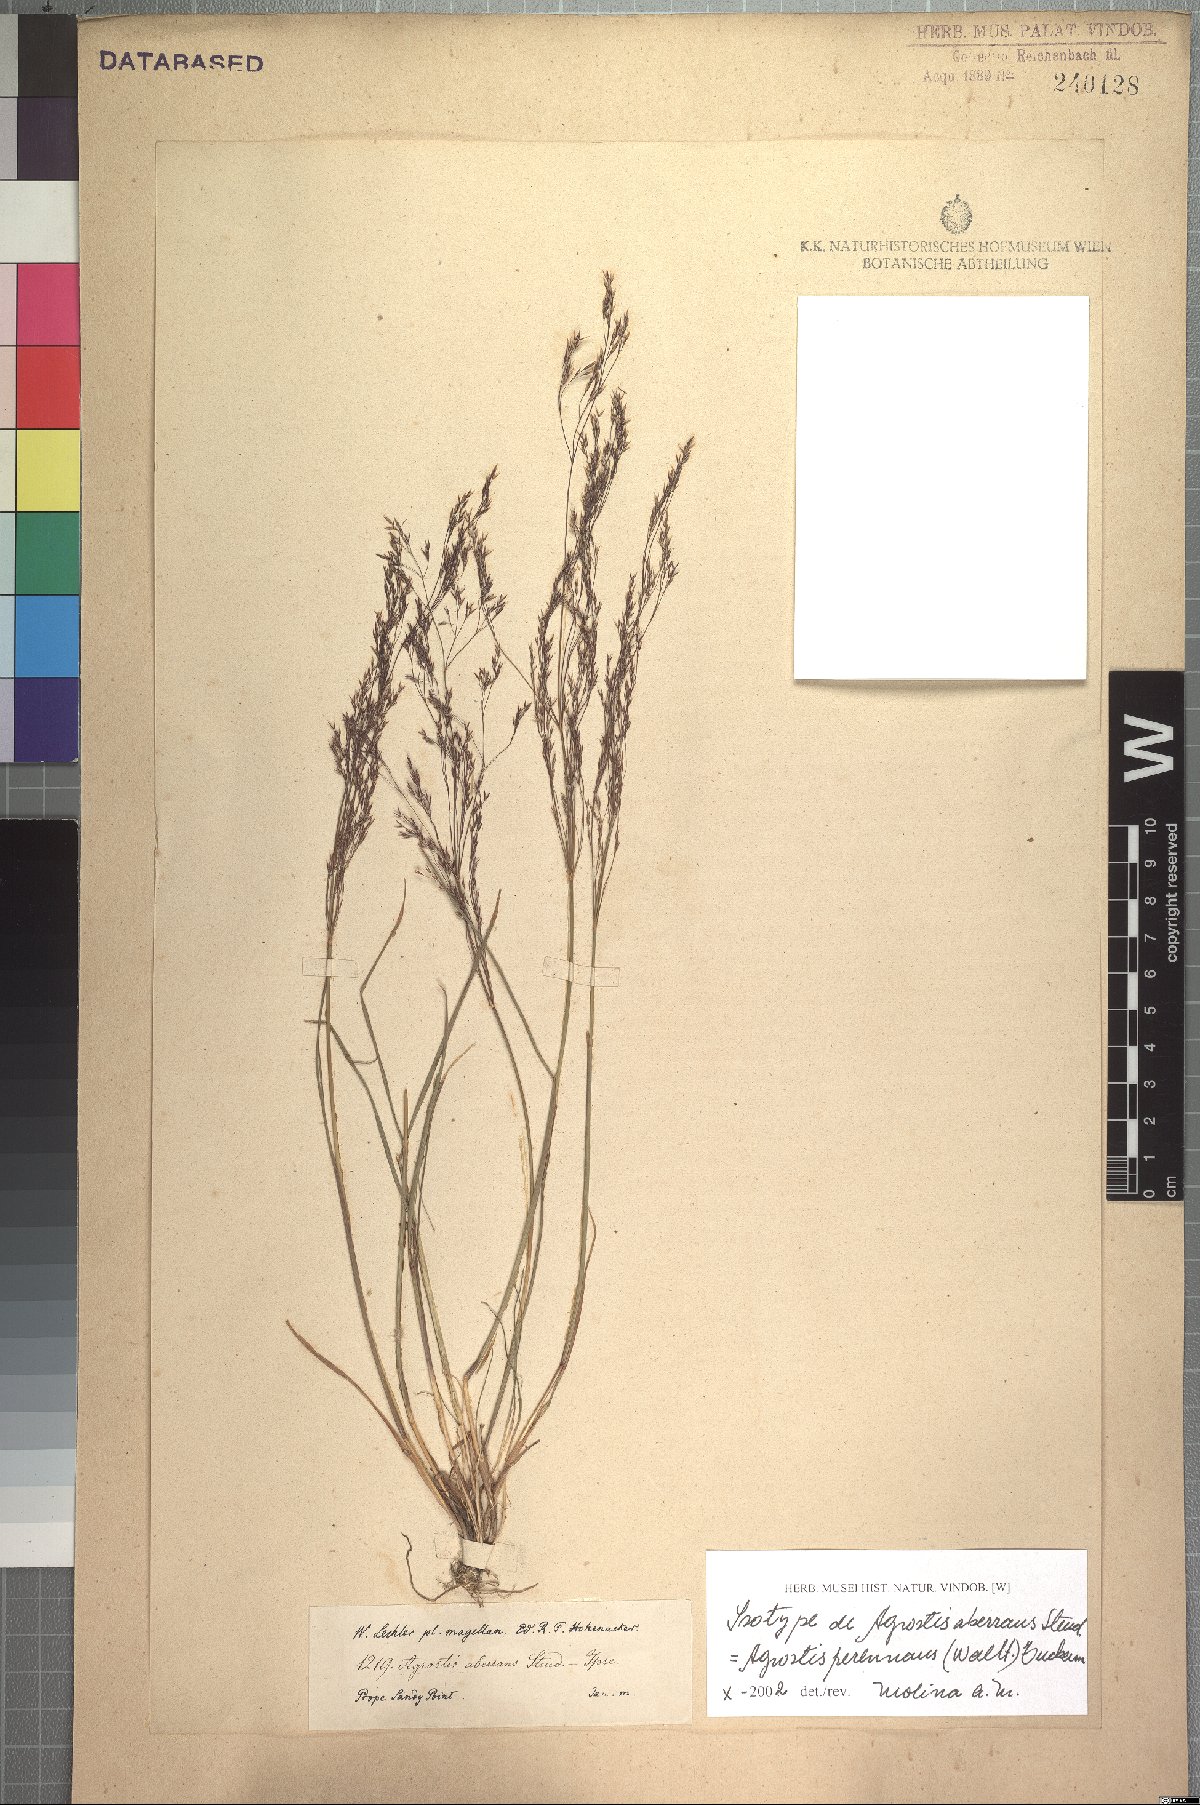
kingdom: Plantae
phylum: Tracheophyta
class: Liliopsida
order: Poales
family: Poaceae
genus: Agrostis
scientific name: Agrostis perennans
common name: Autumn bent
